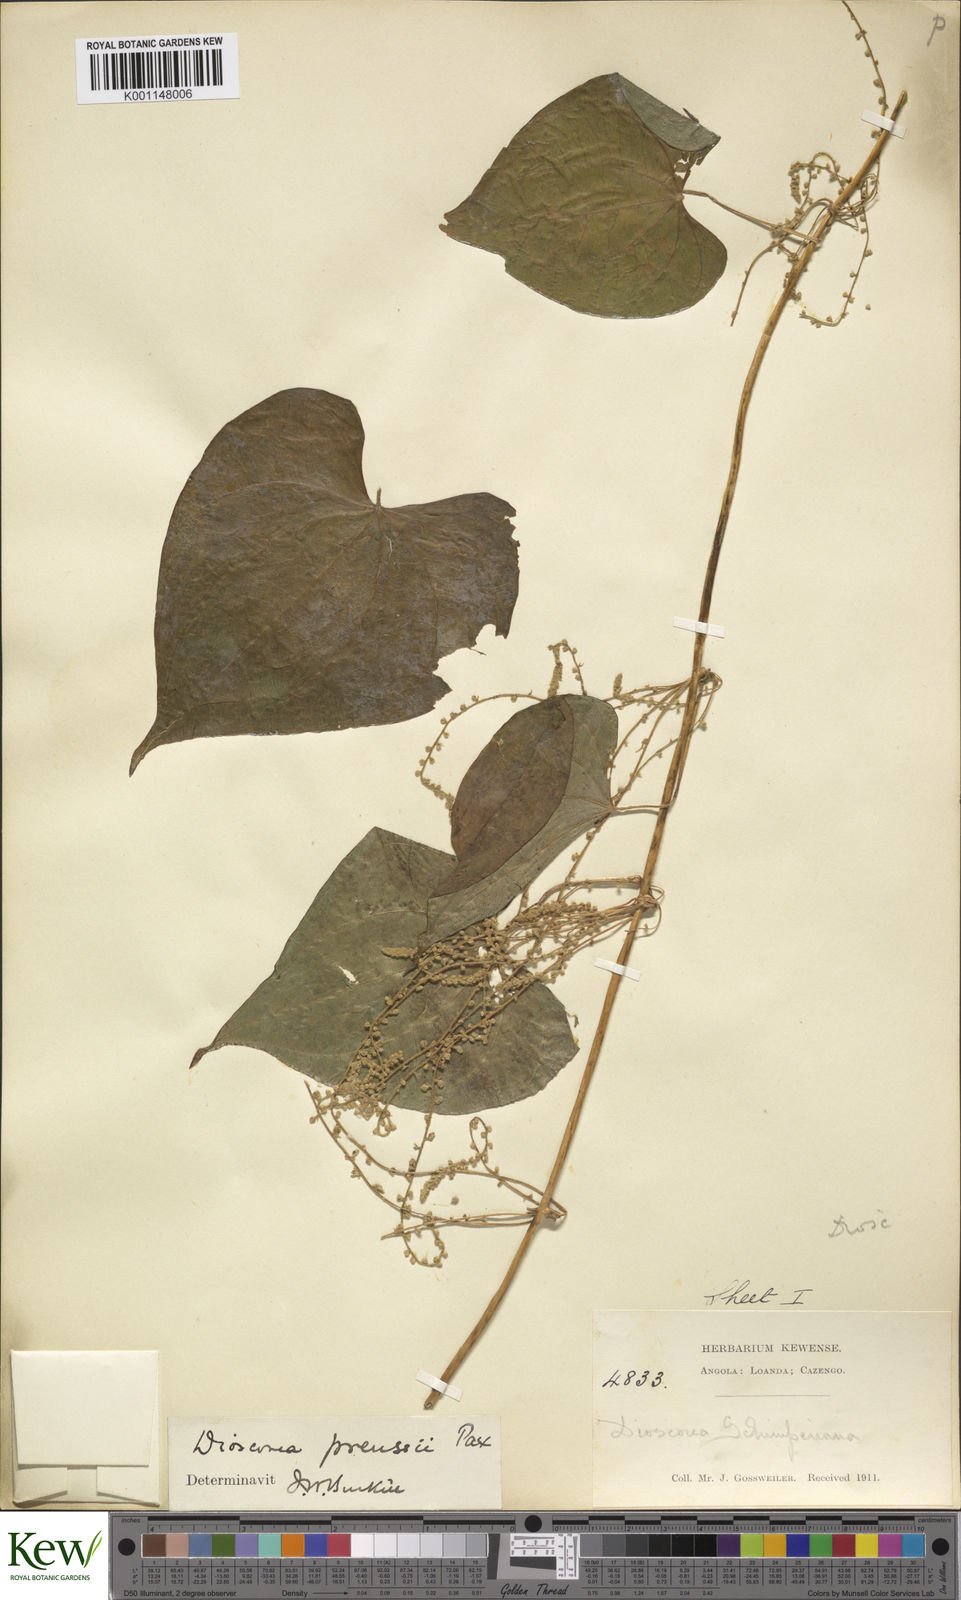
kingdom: Plantae
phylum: Tracheophyta
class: Liliopsida
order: Dioscoreales
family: Dioscoreaceae
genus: Dioscorea
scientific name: Dioscorea preussii
